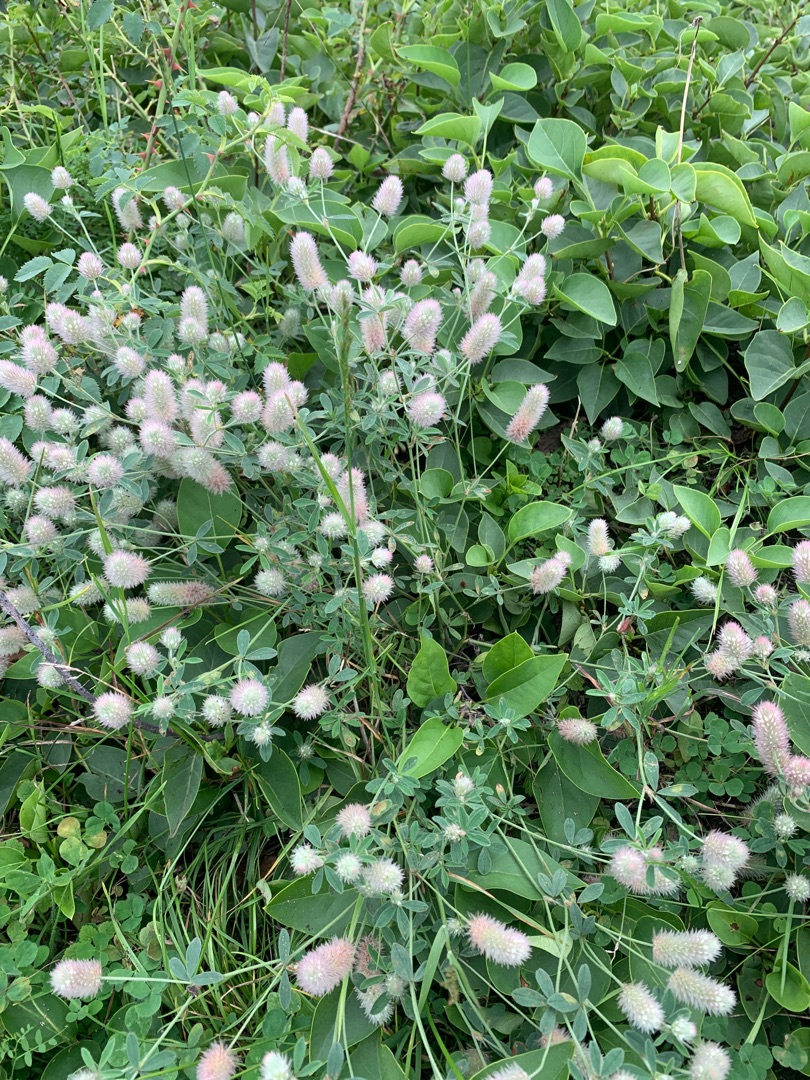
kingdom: Plantae
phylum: Tracheophyta
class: Magnoliopsida
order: Fabales
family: Fabaceae
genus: Trifolium
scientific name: Trifolium arvense
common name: Hare-kløver
